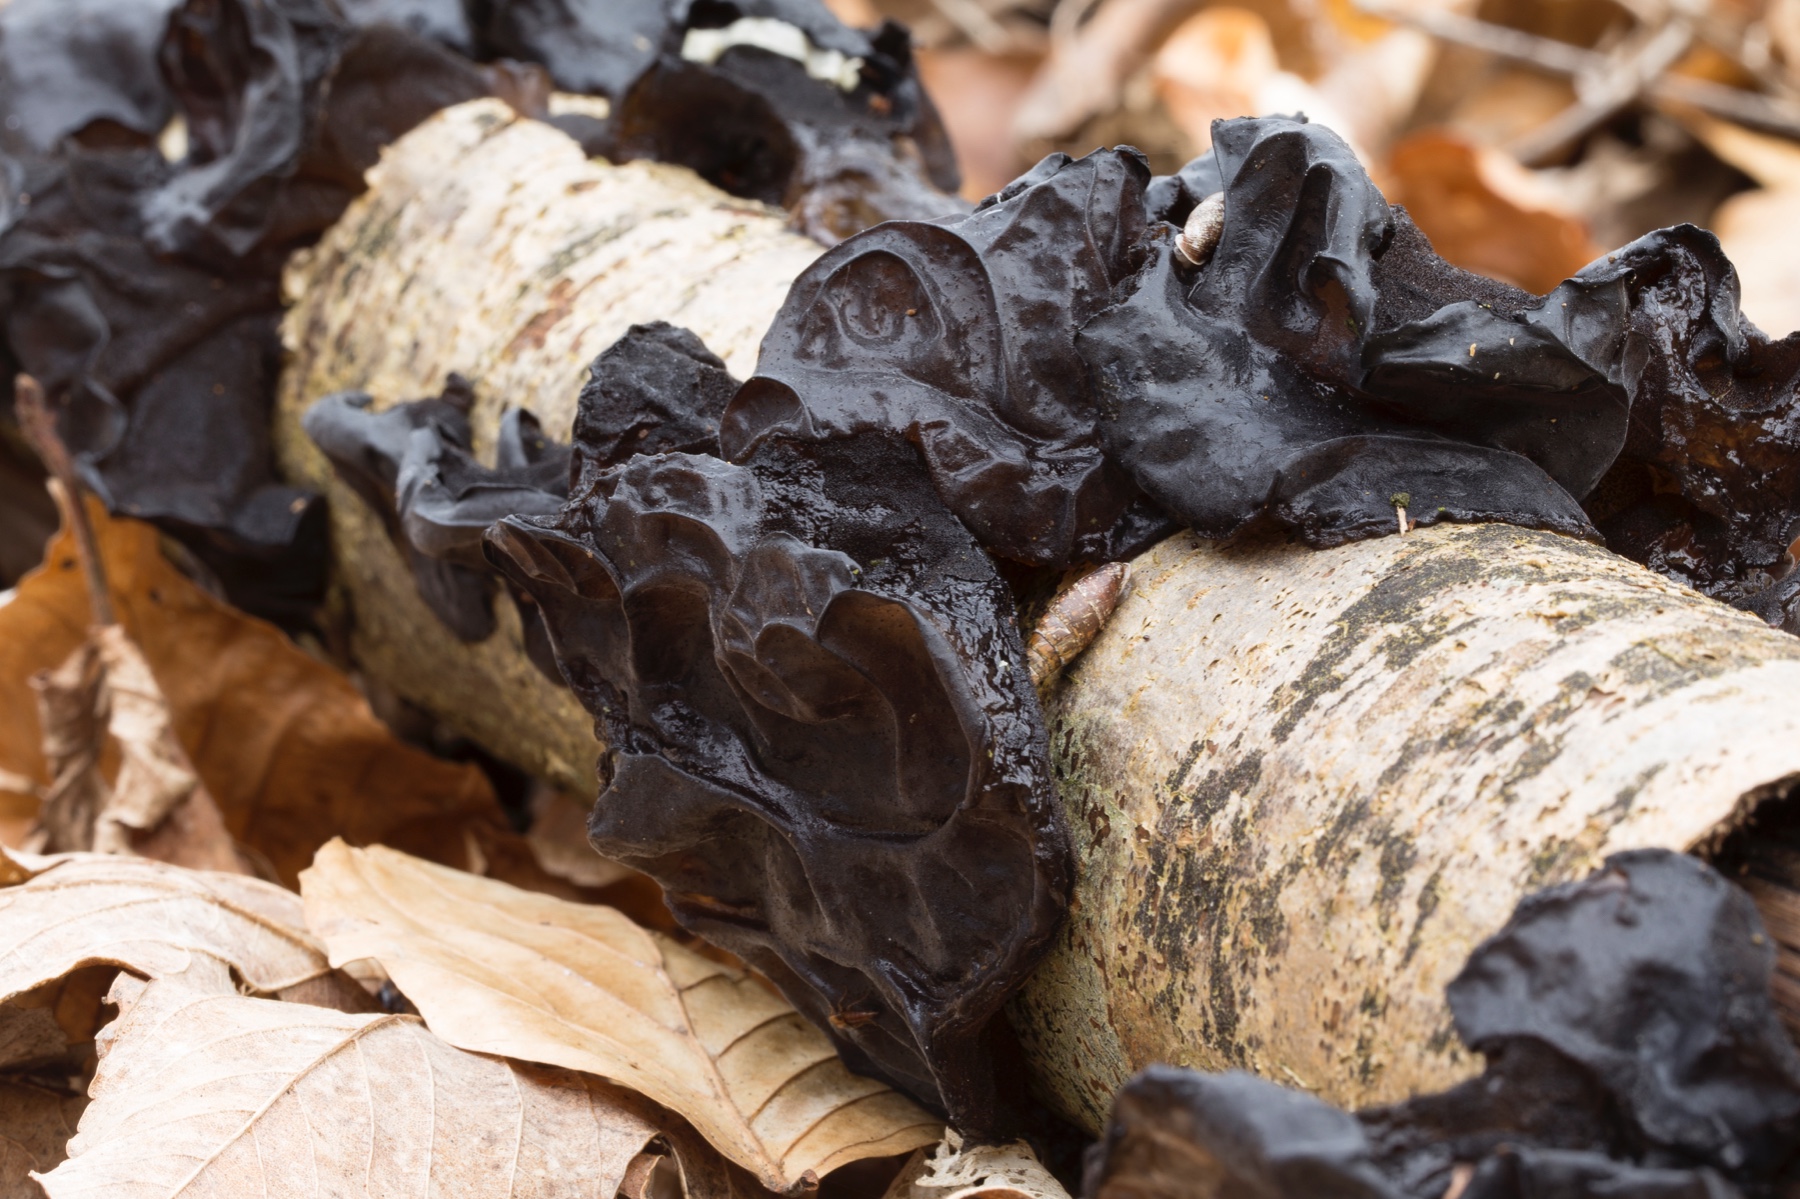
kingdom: Fungi
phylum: Basidiomycota
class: Agaricomycetes
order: Auriculariales
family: Auriculariaceae
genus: Exidia
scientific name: Exidia glandulosa
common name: ege-bævretop
